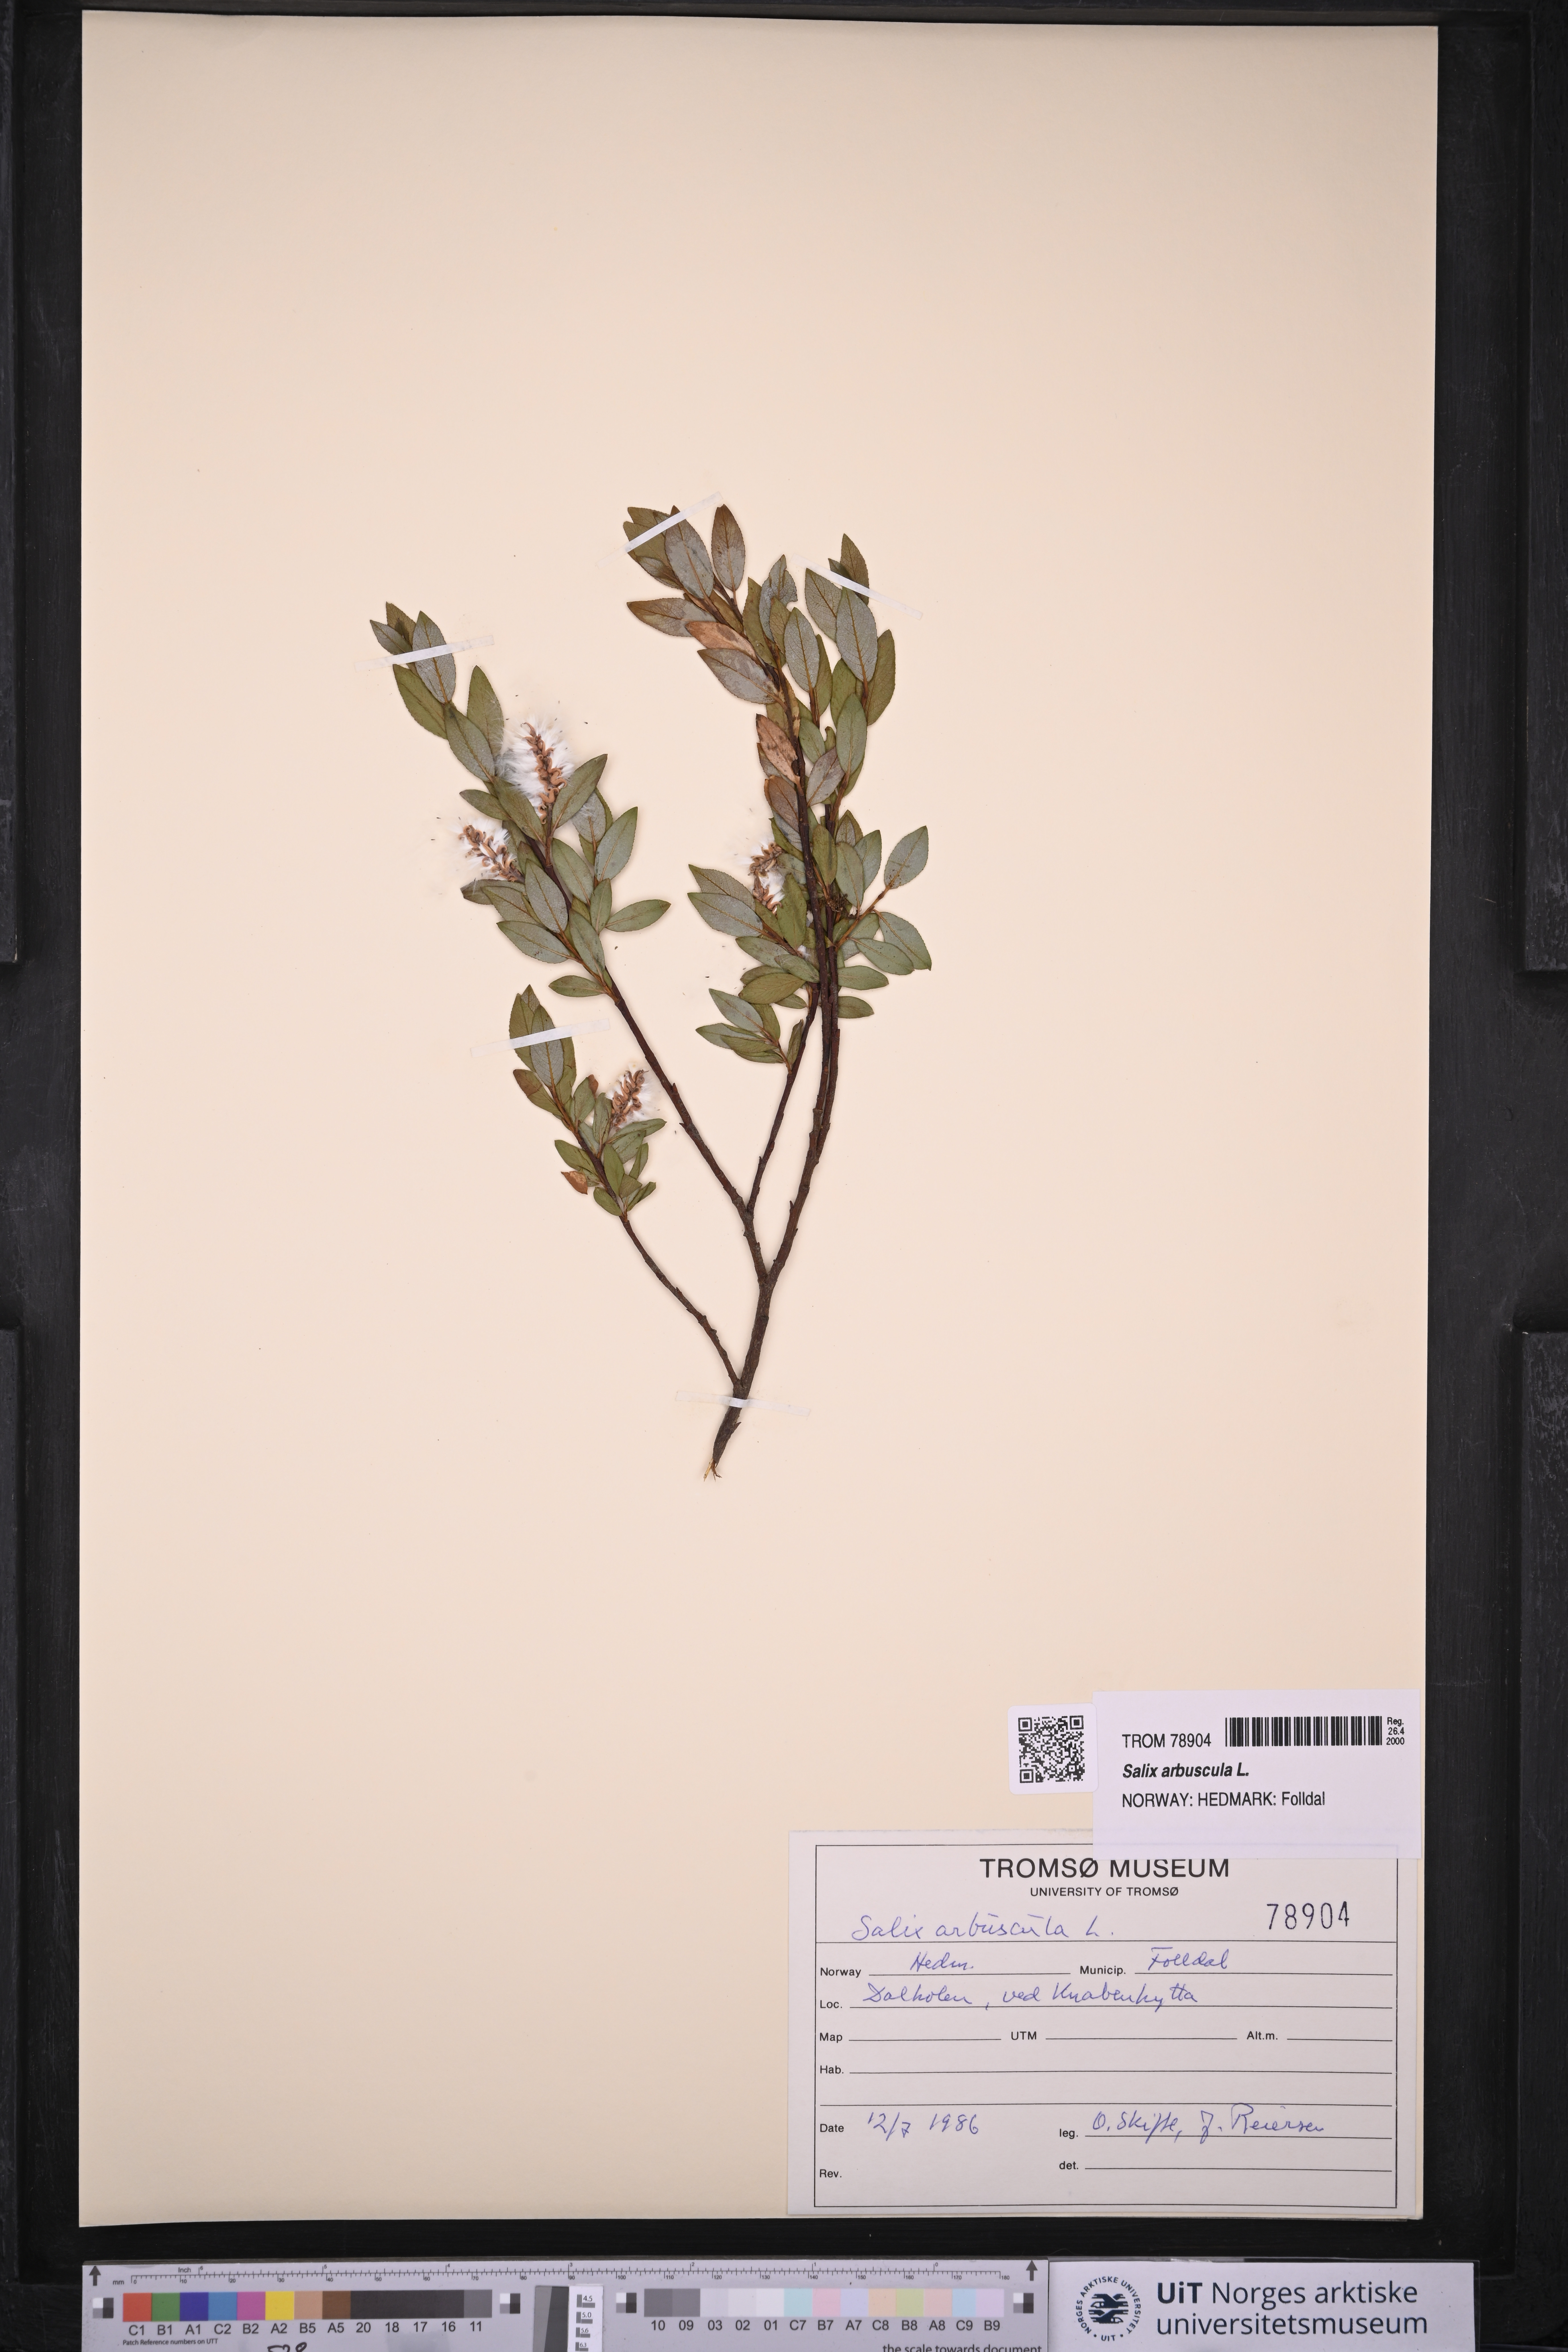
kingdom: Plantae
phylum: Tracheophyta
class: Magnoliopsida
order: Malpighiales
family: Salicaceae
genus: Salix
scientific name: Salix arbuscula
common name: Mountain willow
